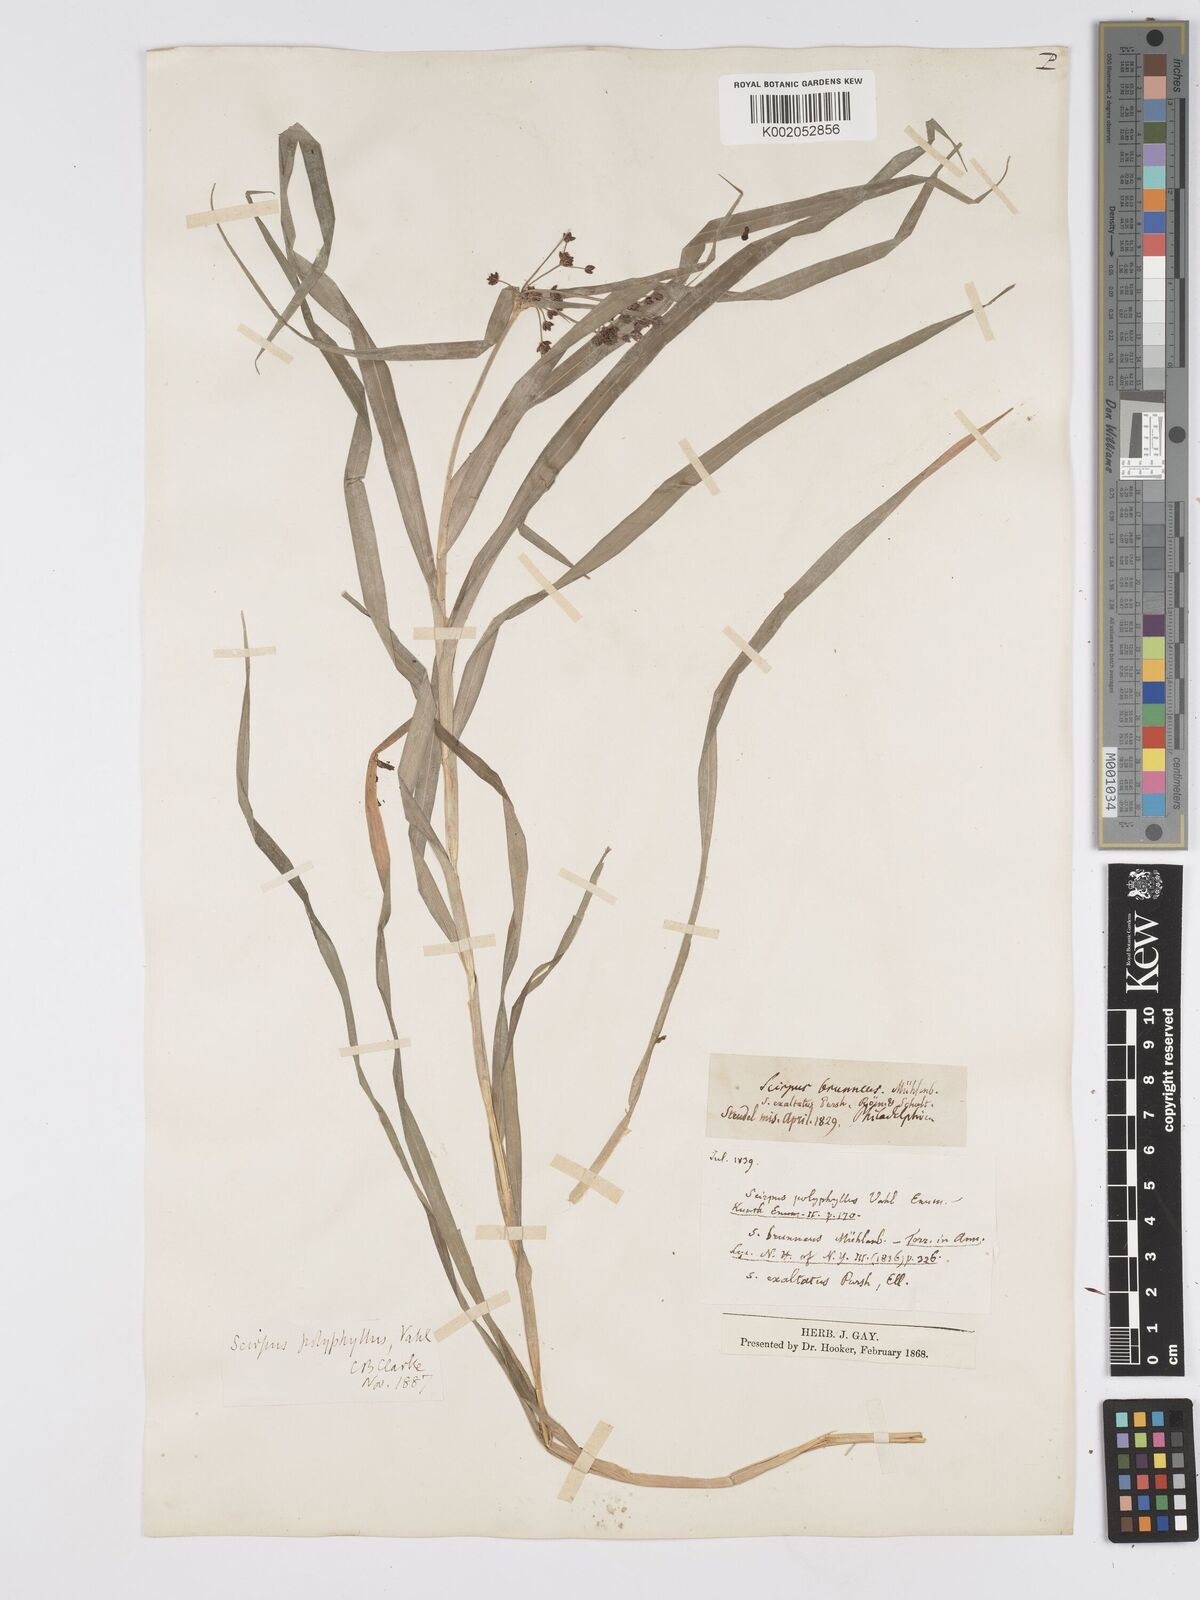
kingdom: Plantae
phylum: Tracheophyta
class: Liliopsida
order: Poales
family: Cyperaceae
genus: Scirpus
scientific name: Scirpus polyphyllus
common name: Leafy bulrush
